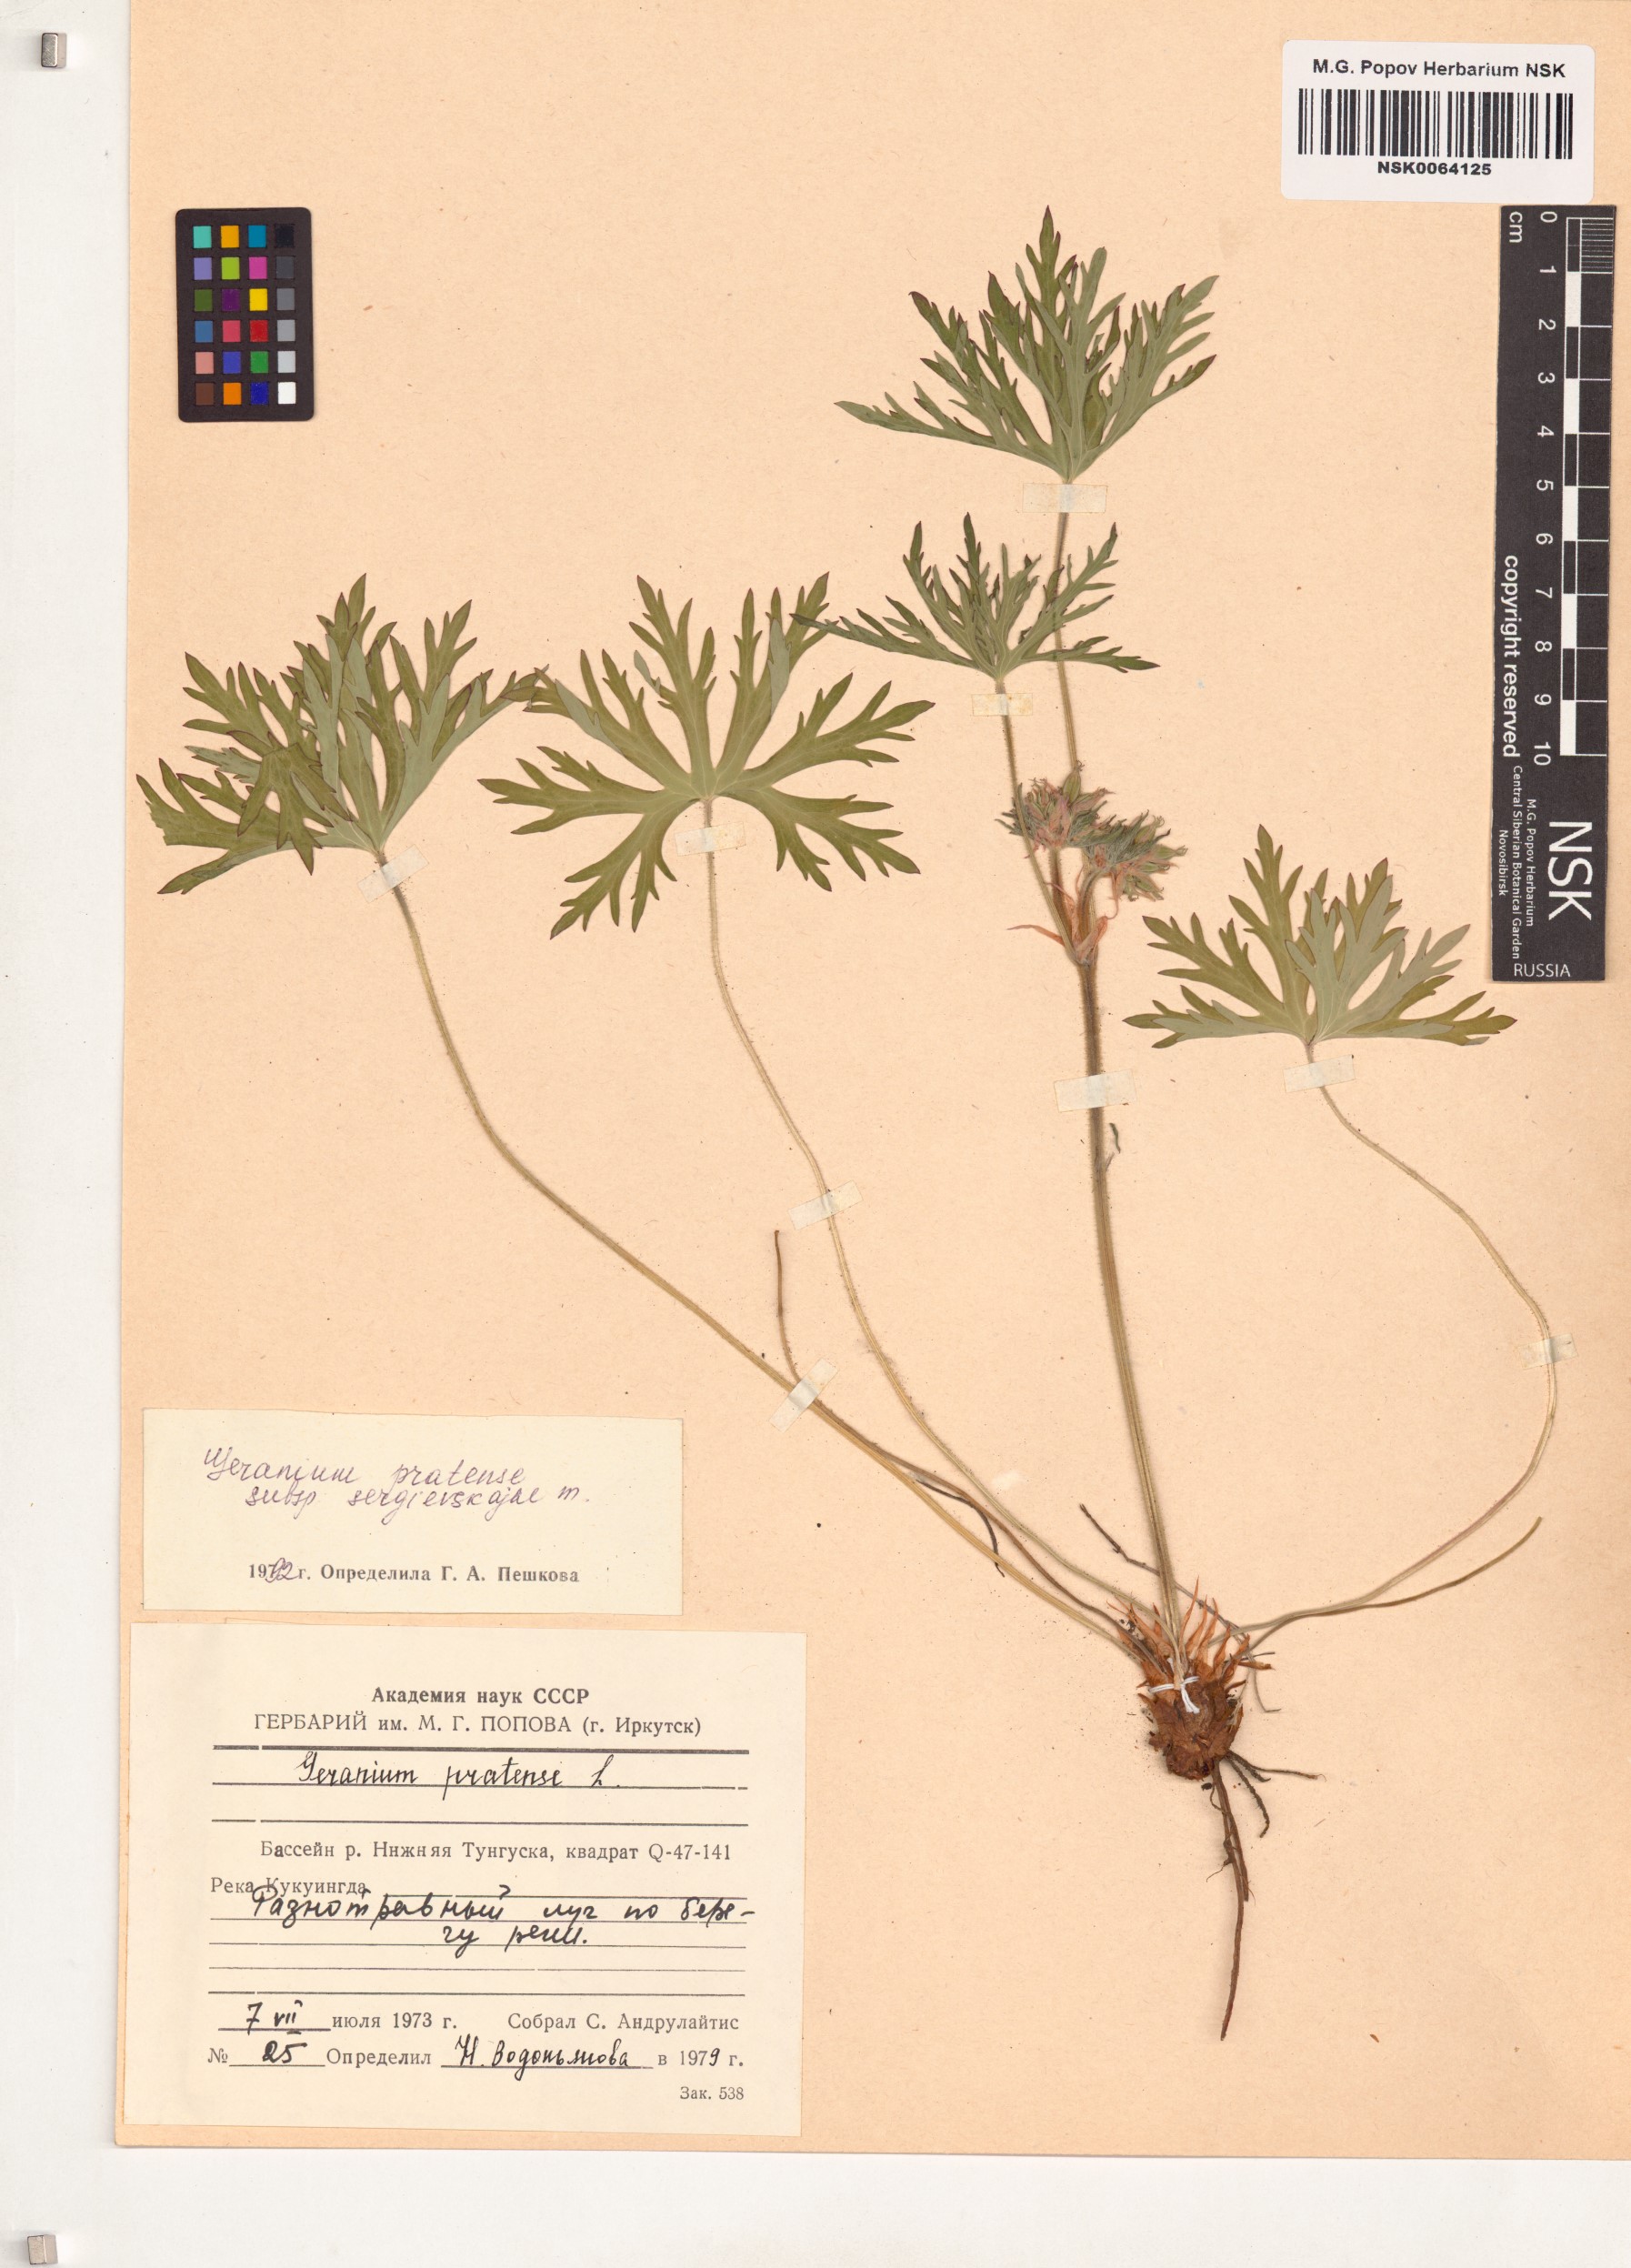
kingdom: Plantae
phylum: Tracheophyta
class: Magnoliopsida
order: Geraniales
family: Geraniaceae
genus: Geranium
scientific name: Geranium pratense
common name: Meadow crane's-bill
